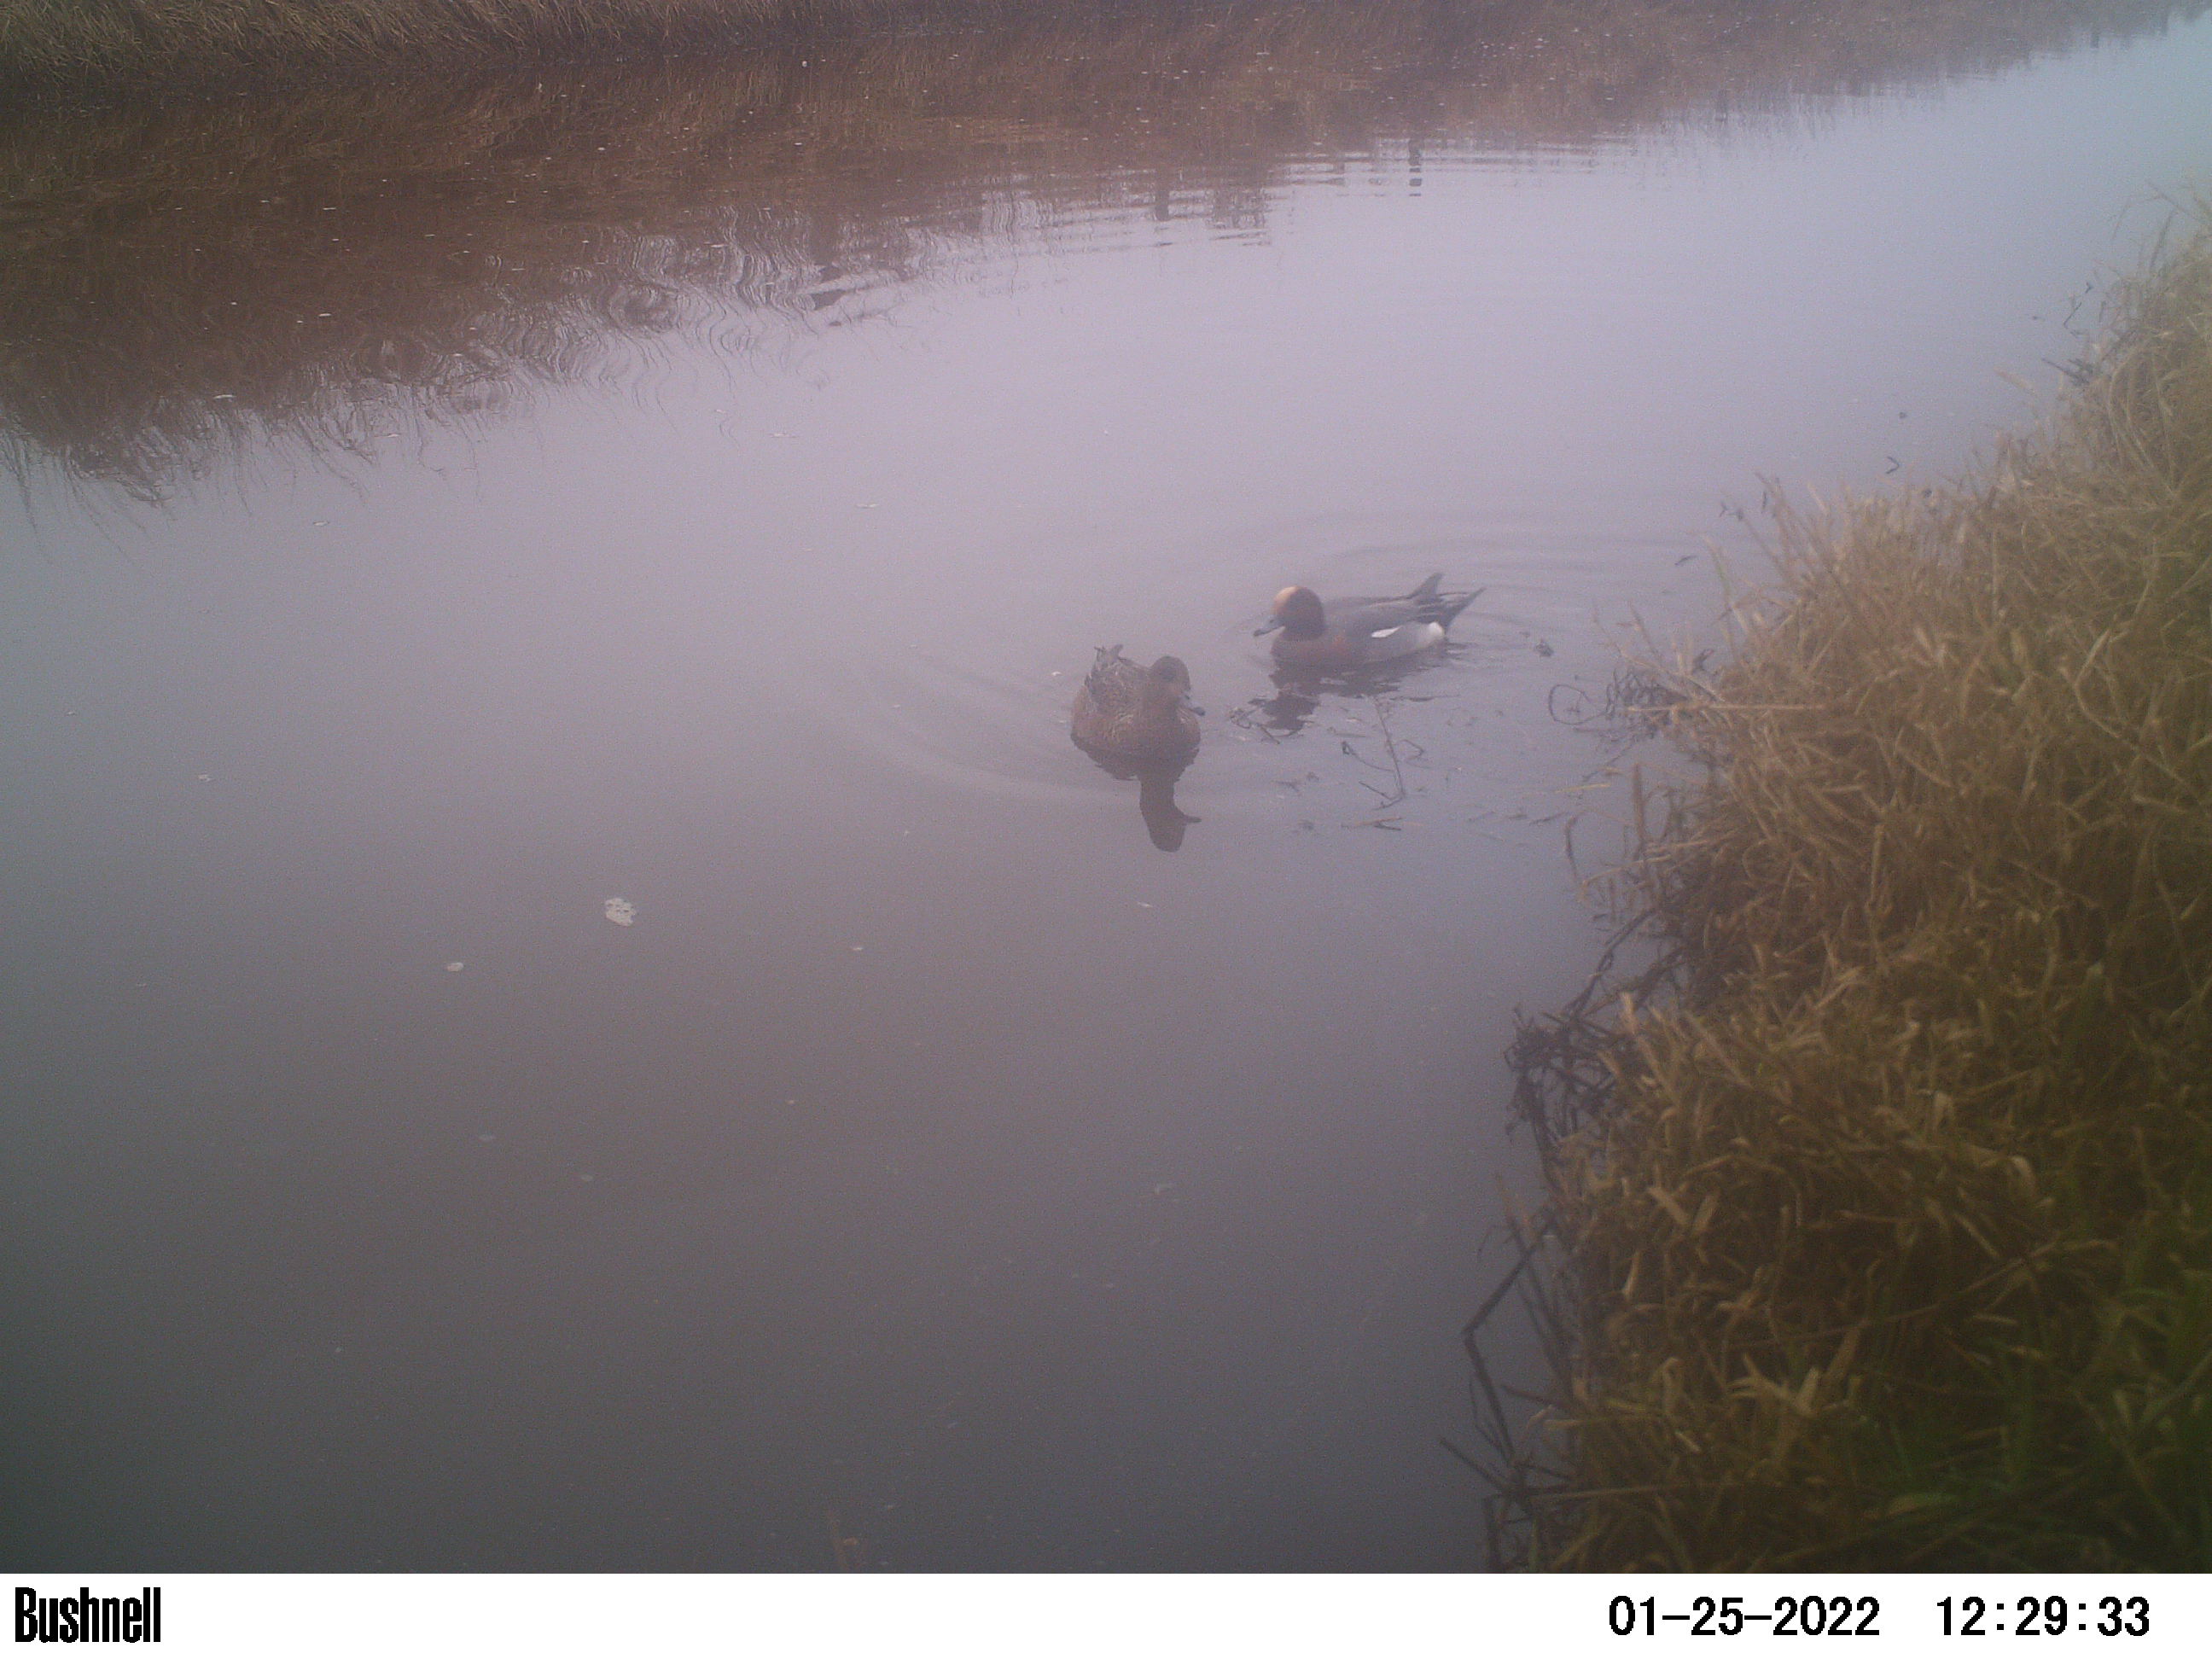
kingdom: Animalia
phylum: Chordata
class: Aves
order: Anseriformes
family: Anatidae
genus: Anas
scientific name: Anas
